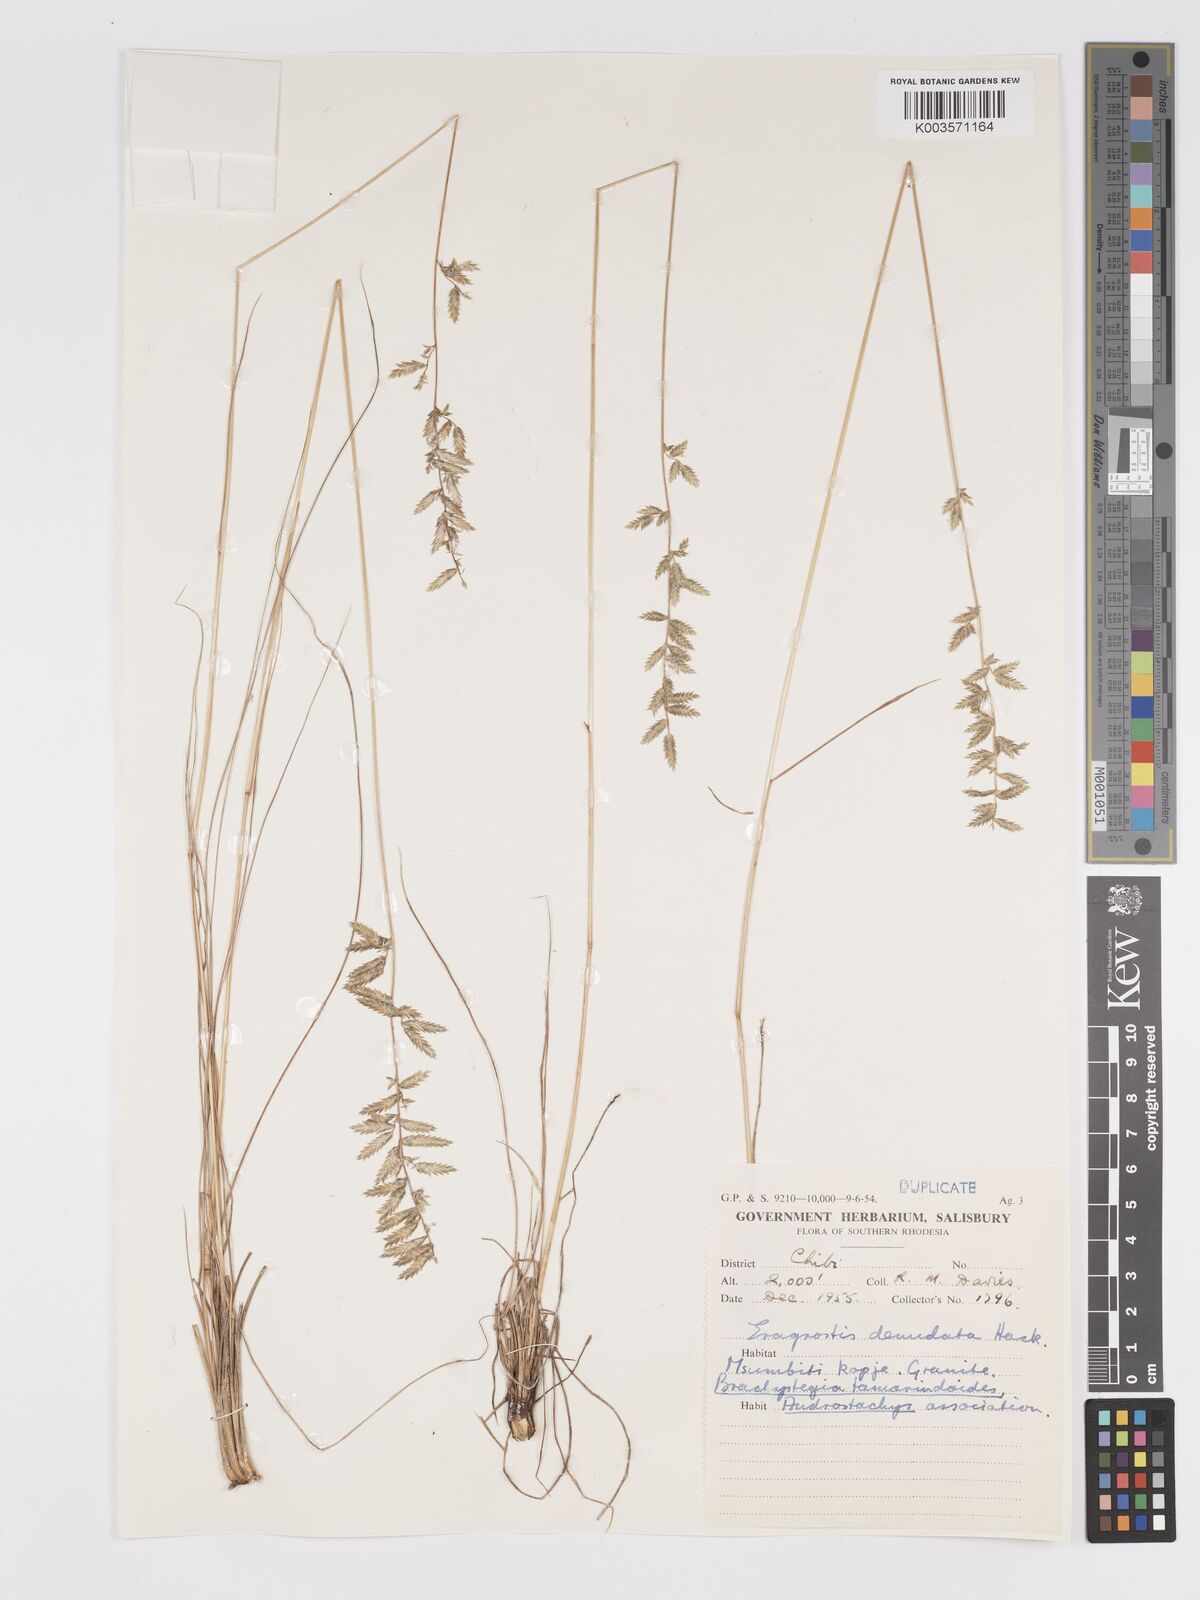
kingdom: Plantae
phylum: Tracheophyta
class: Liliopsida
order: Poales
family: Poaceae
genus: Eragrostis
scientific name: Eragrostis nindensis
